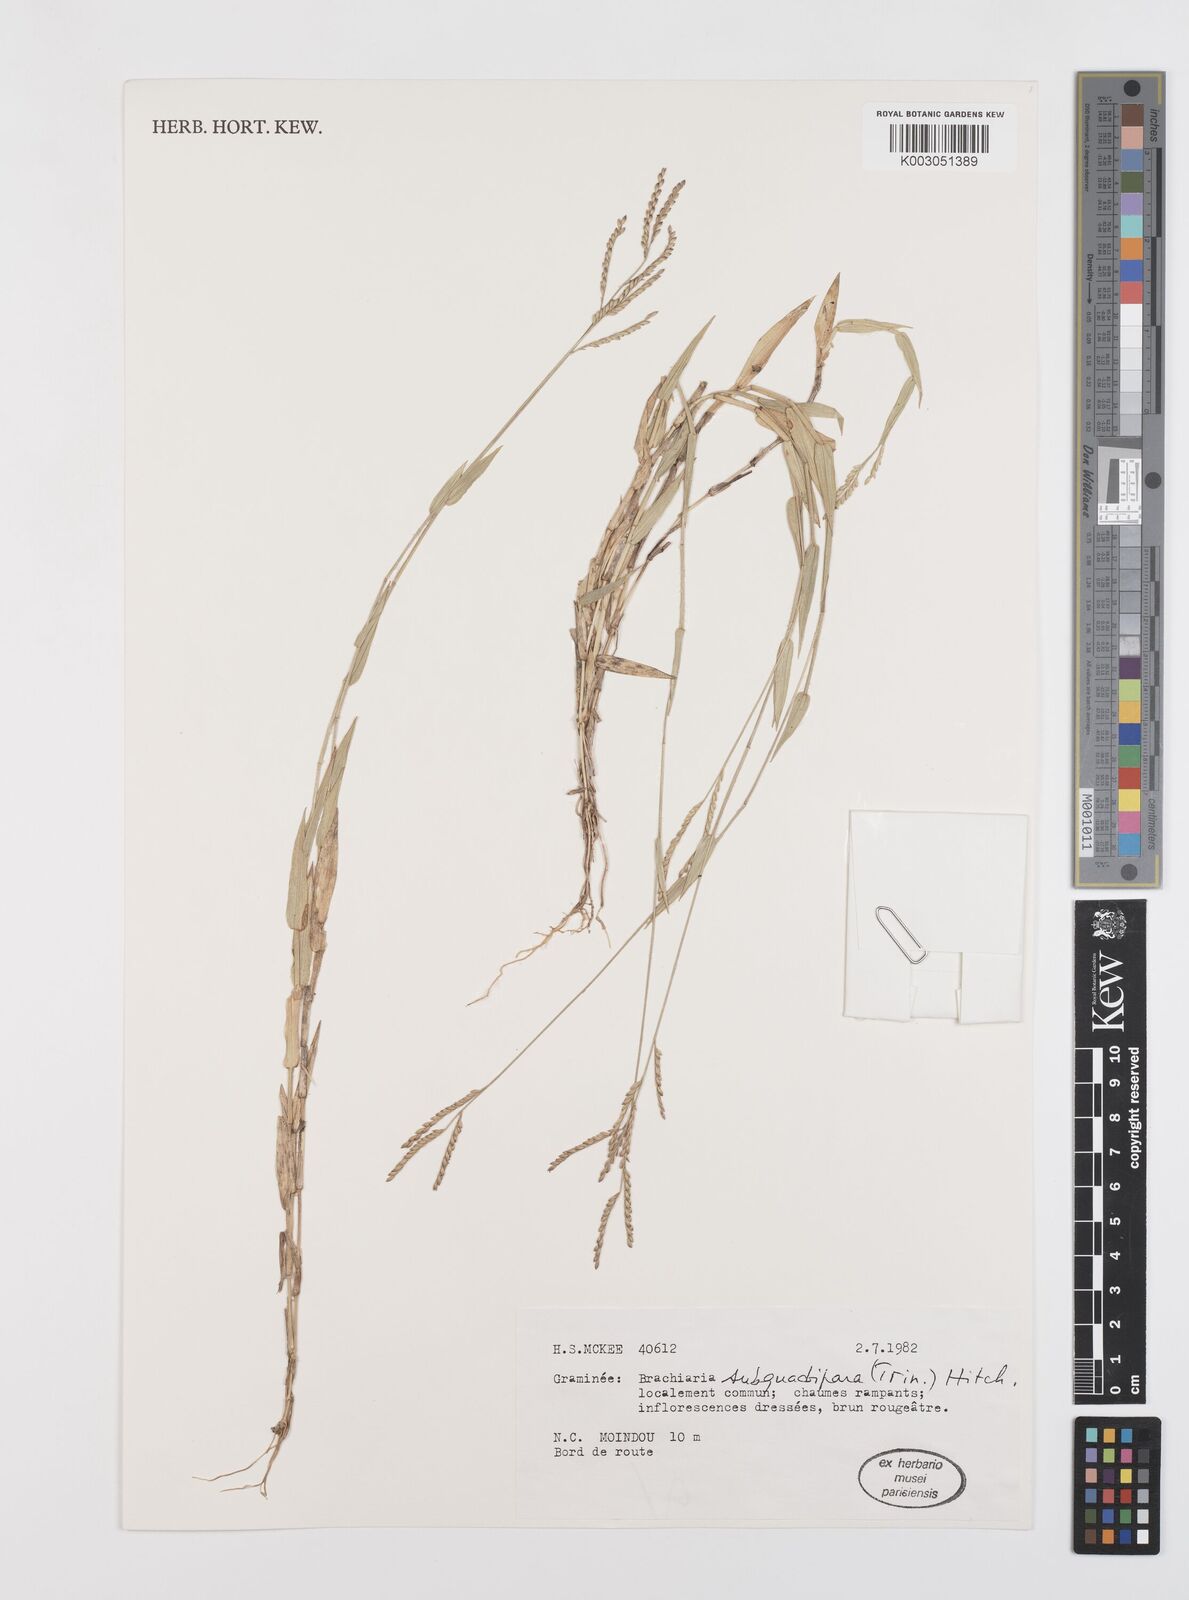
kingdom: Plantae
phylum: Tracheophyta
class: Liliopsida
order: Poales
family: Poaceae
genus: Urochloa
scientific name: Urochloa subquadripara
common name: Armgrass millet
